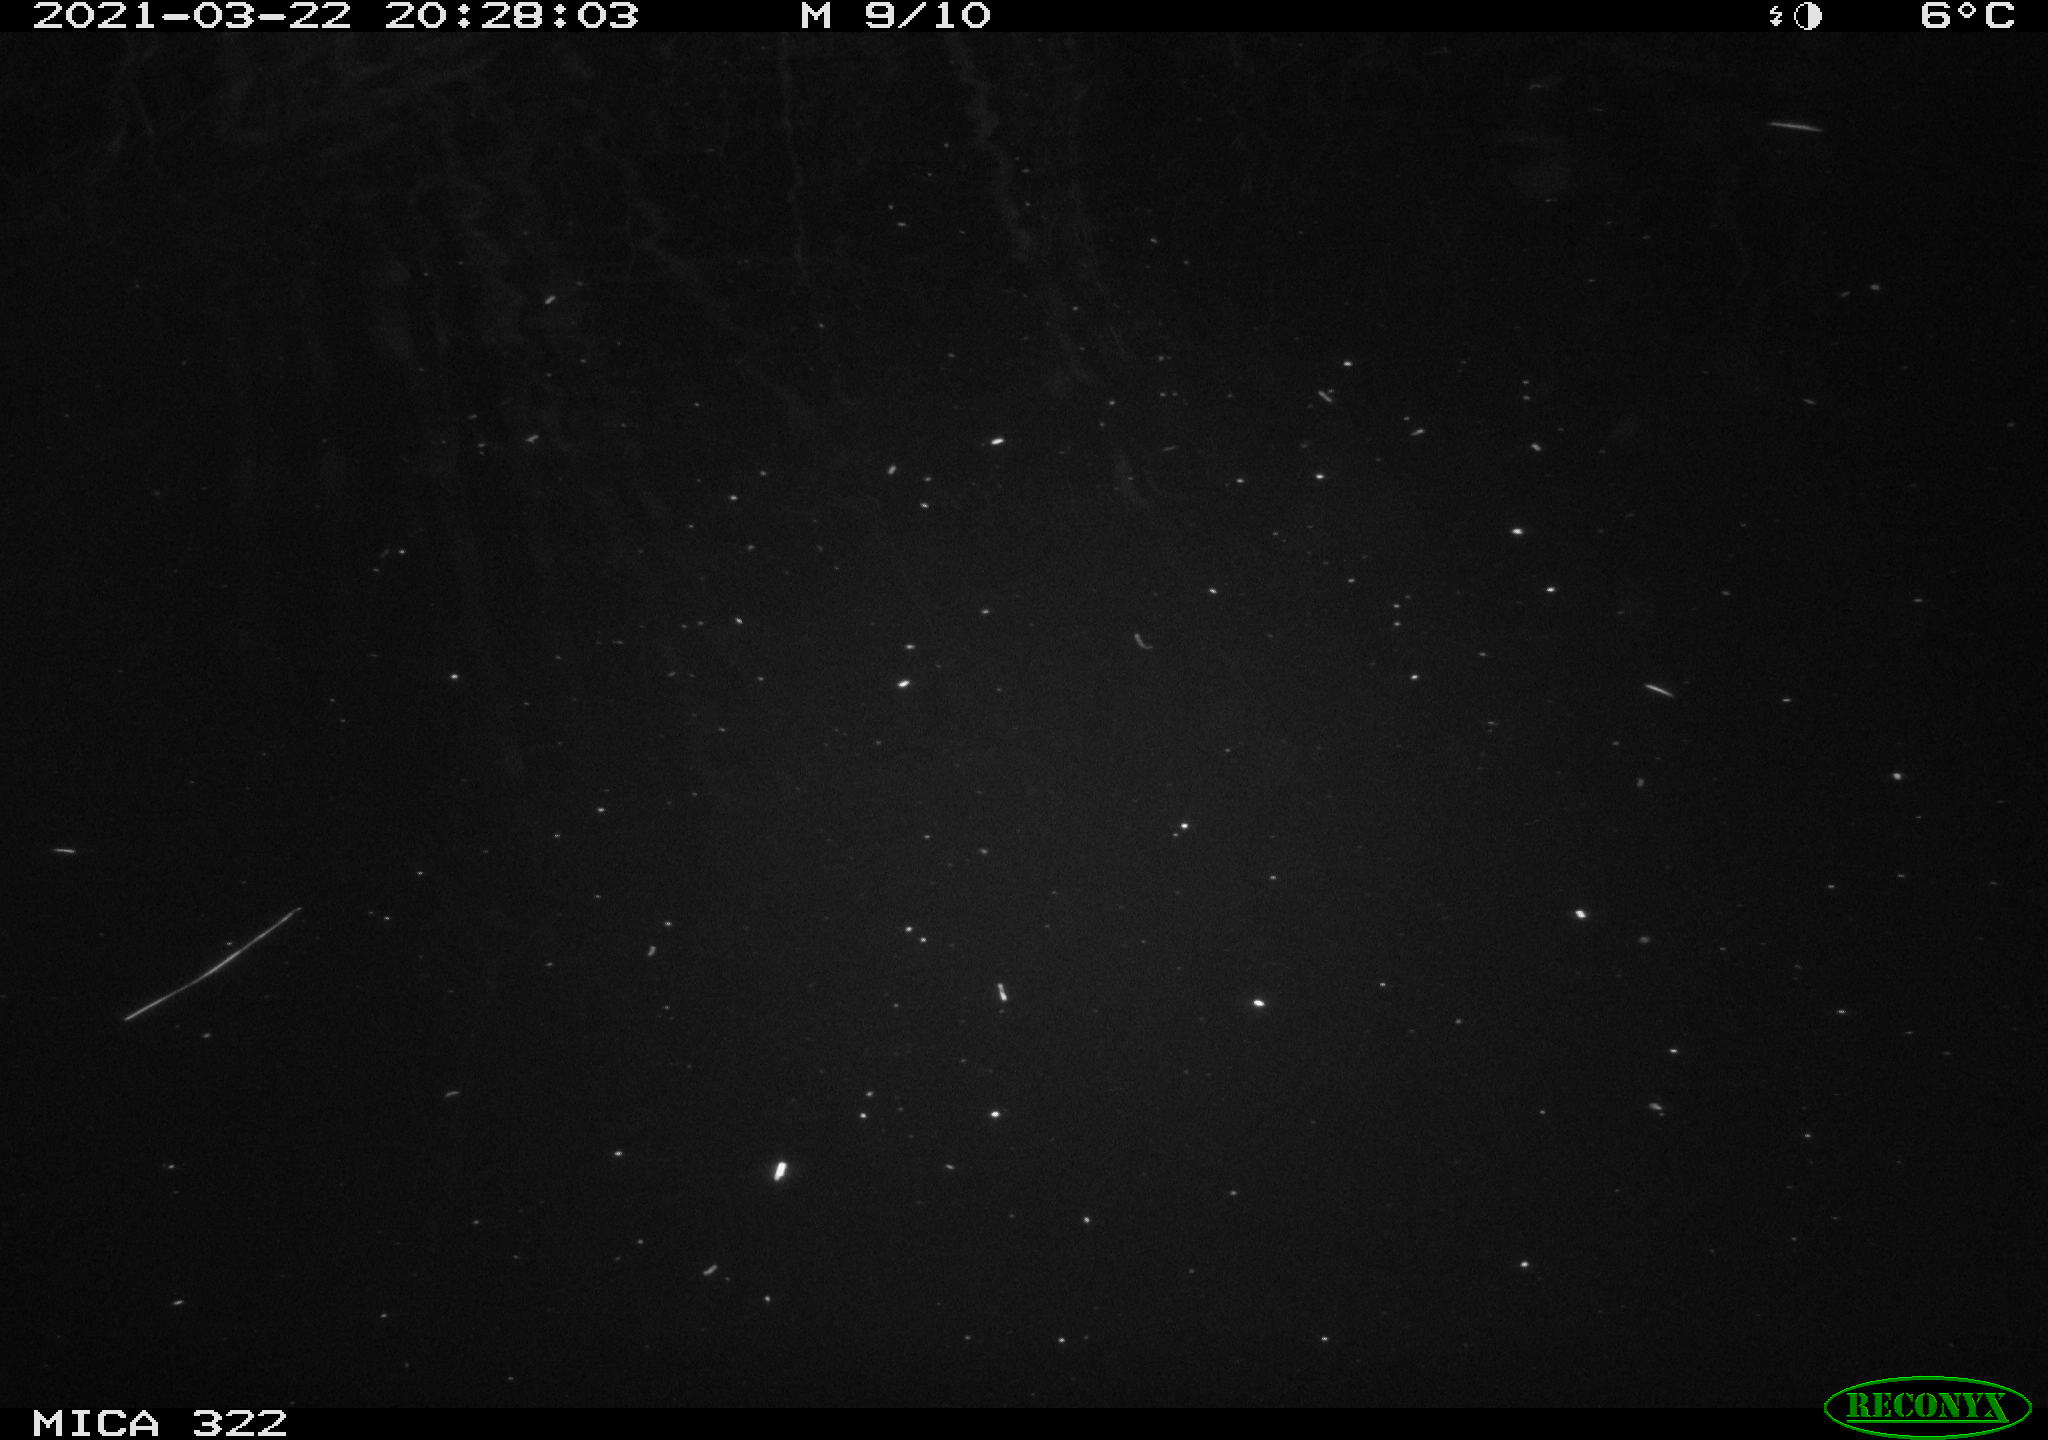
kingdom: Animalia
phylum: Chordata
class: Mammalia
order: Rodentia
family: Muridae
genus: Rattus
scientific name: Rattus norvegicus
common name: Brown rat
